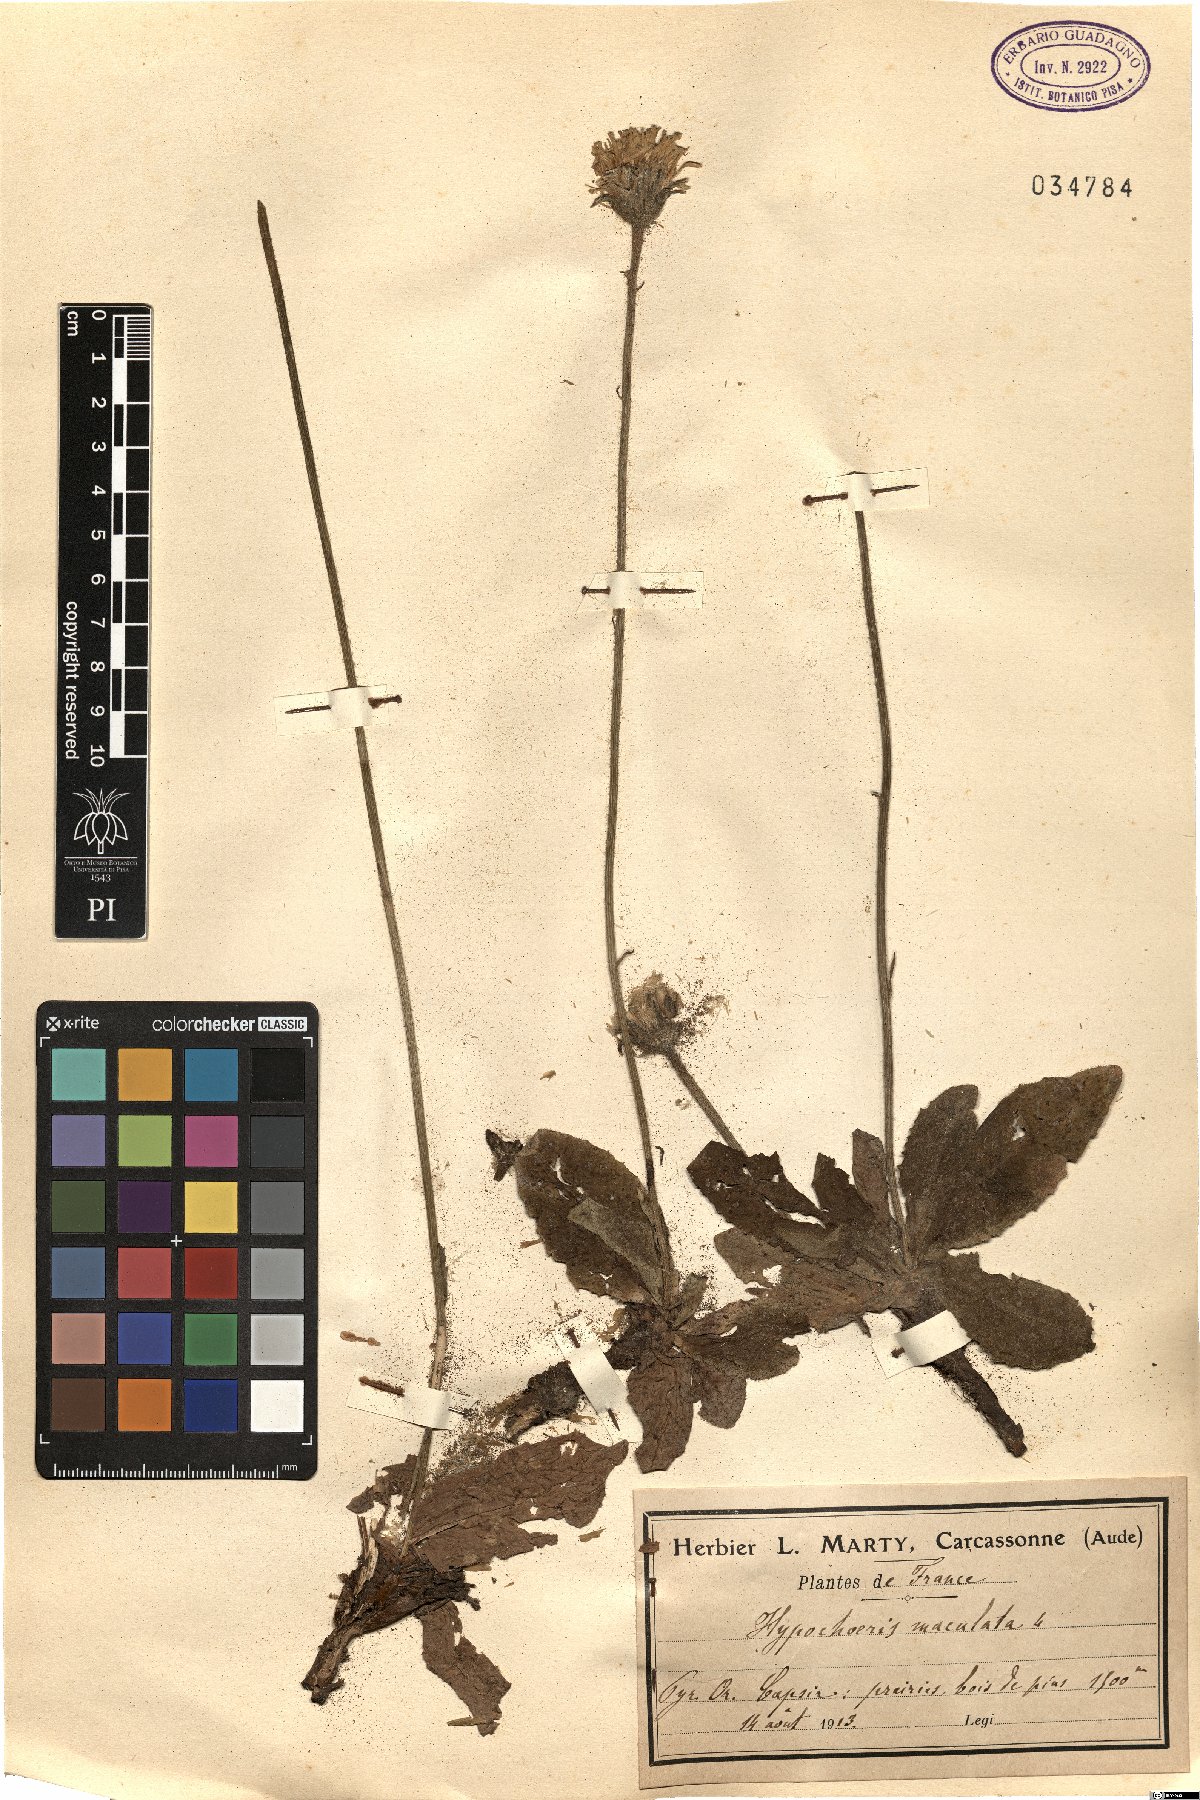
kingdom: Plantae
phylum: Tracheophyta
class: Magnoliopsida
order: Asterales
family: Asteraceae
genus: Trommsdorffia
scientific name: Trommsdorffia maculata
